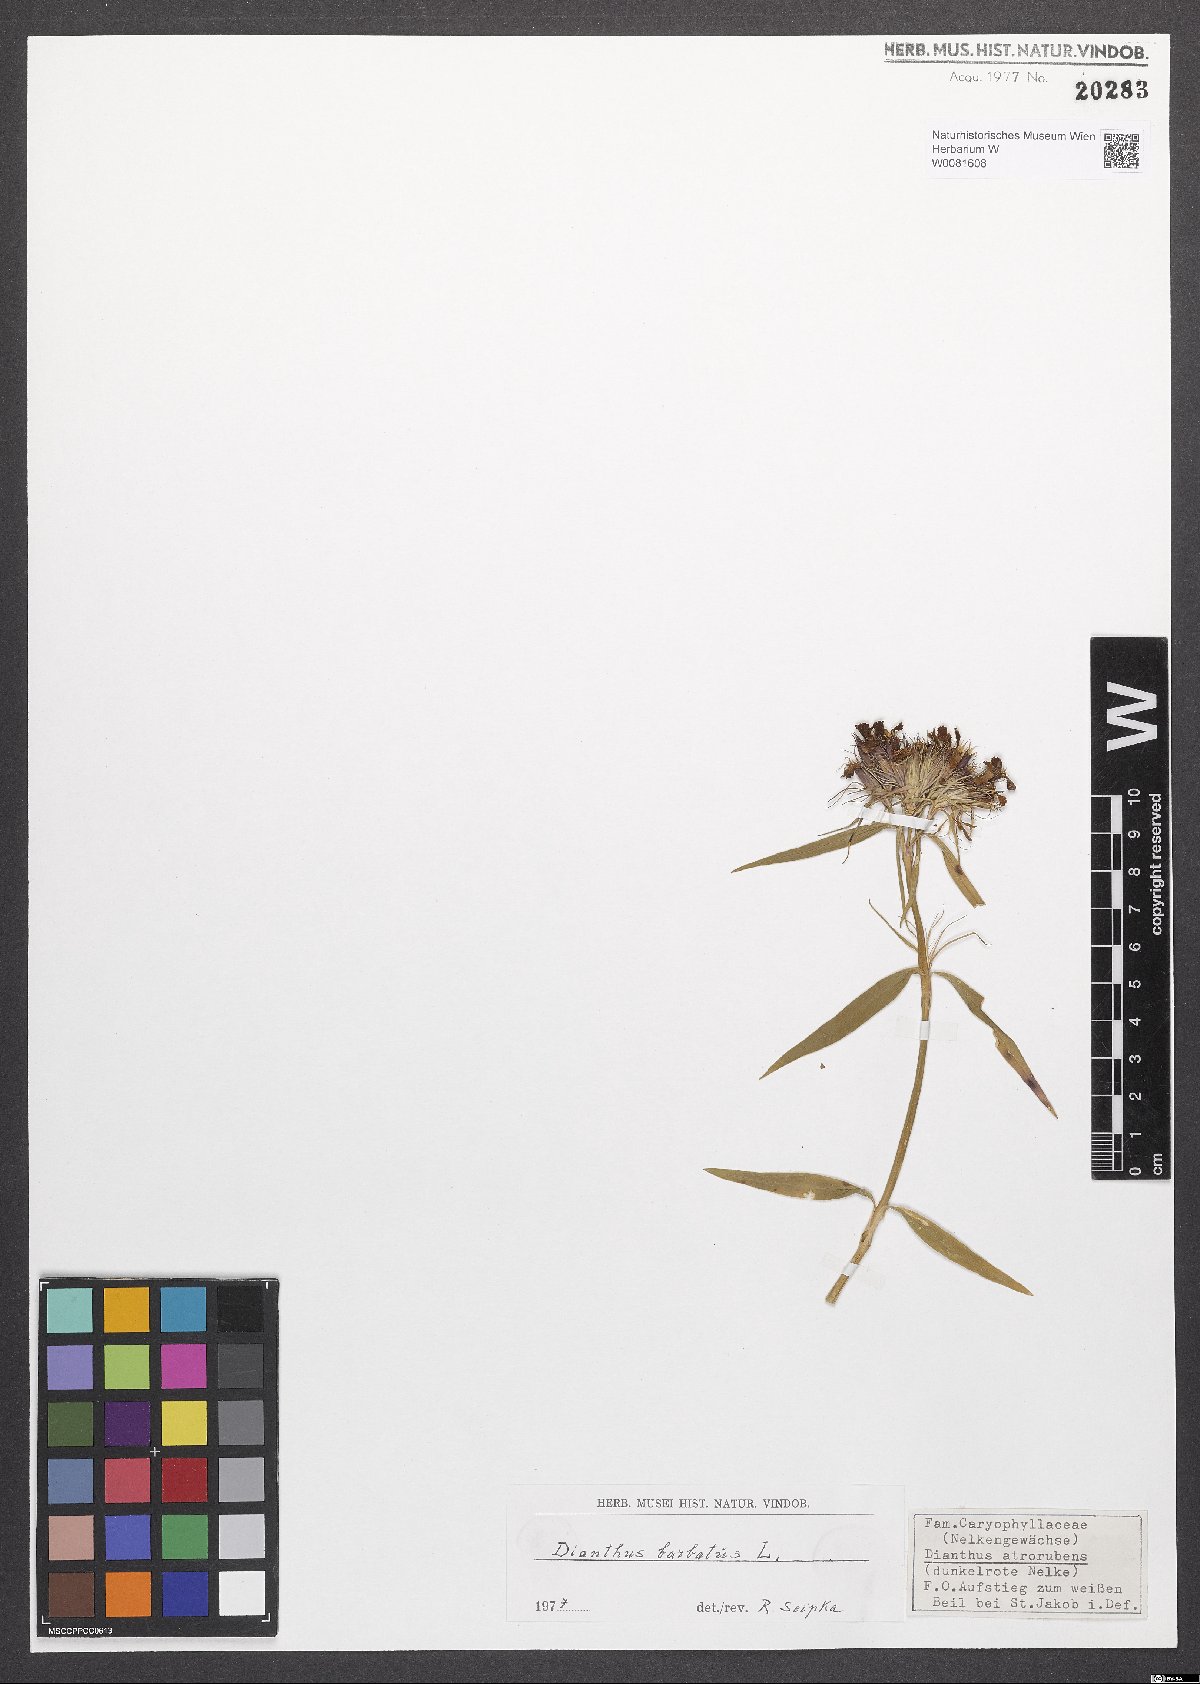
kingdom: Plantae
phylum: Tracheophyta
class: Liliopsida
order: Poales
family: Poaceae
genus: Agrostis
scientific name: Agrostis capillaris
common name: Colonial bentgrass
